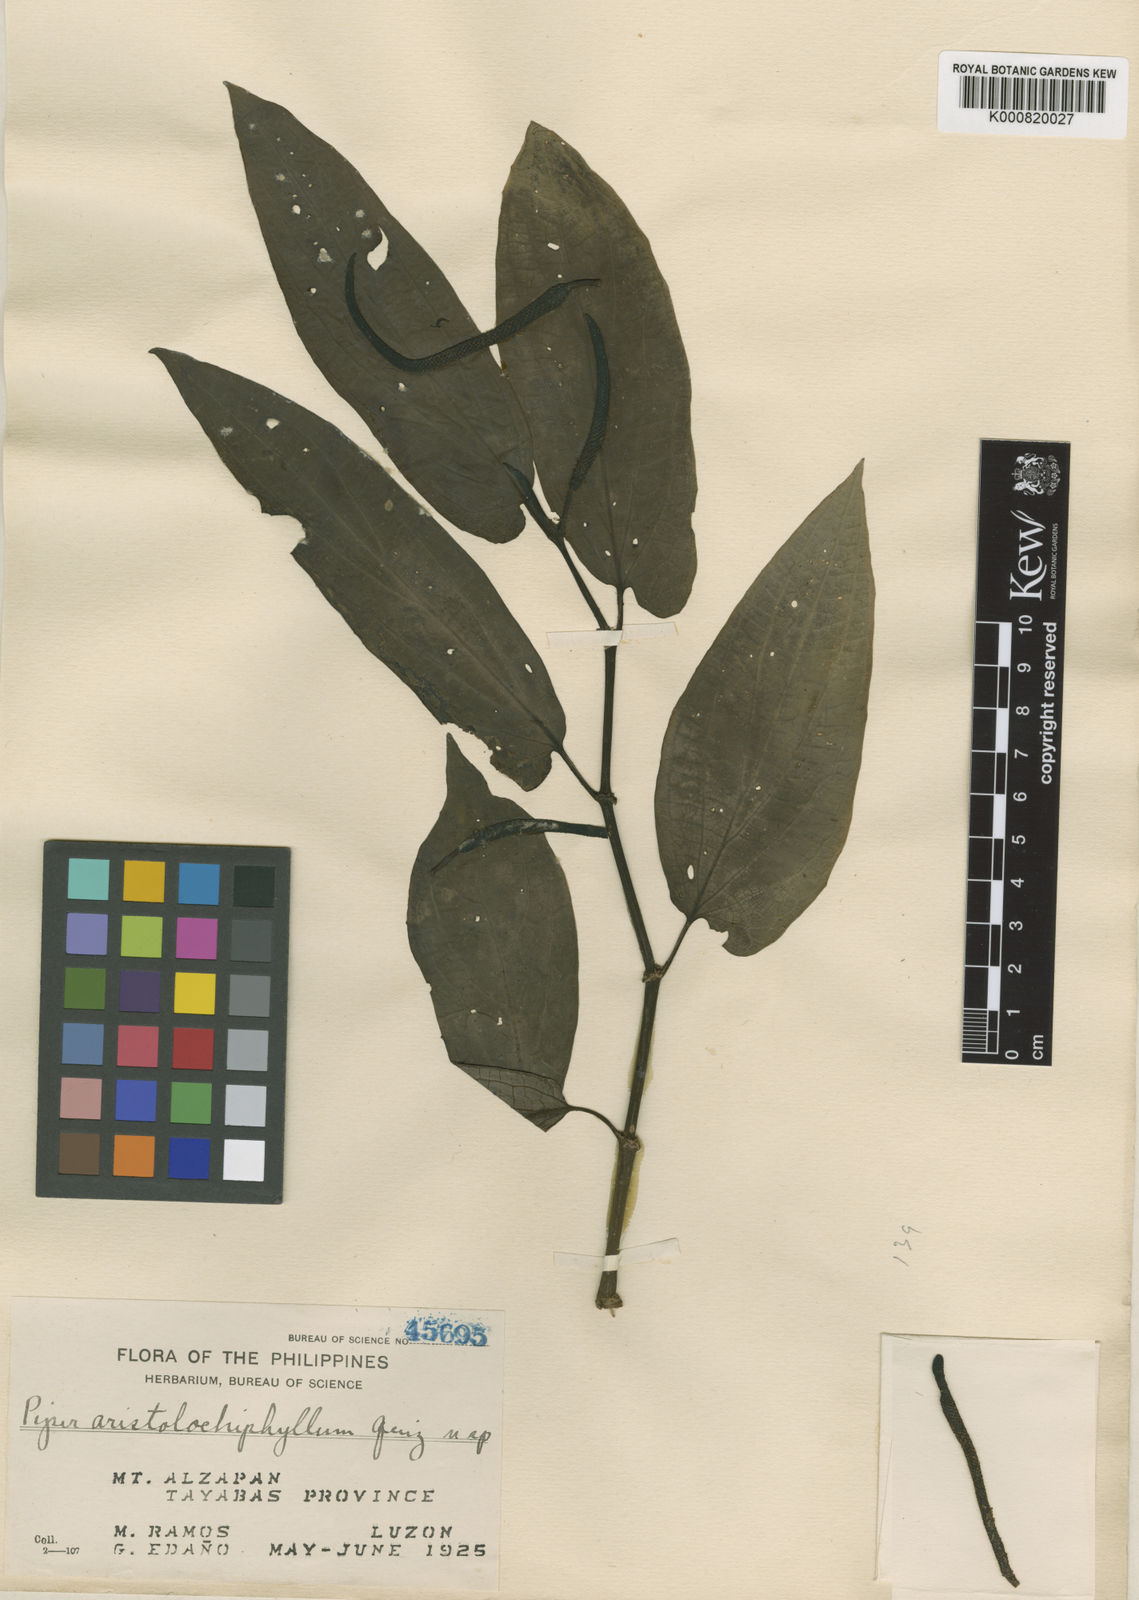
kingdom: Plantae
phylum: Tracheophyta
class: Magnoliopsida
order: Piperales
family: Piperaceae
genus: Piper
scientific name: Piper aristolochiphyllum
